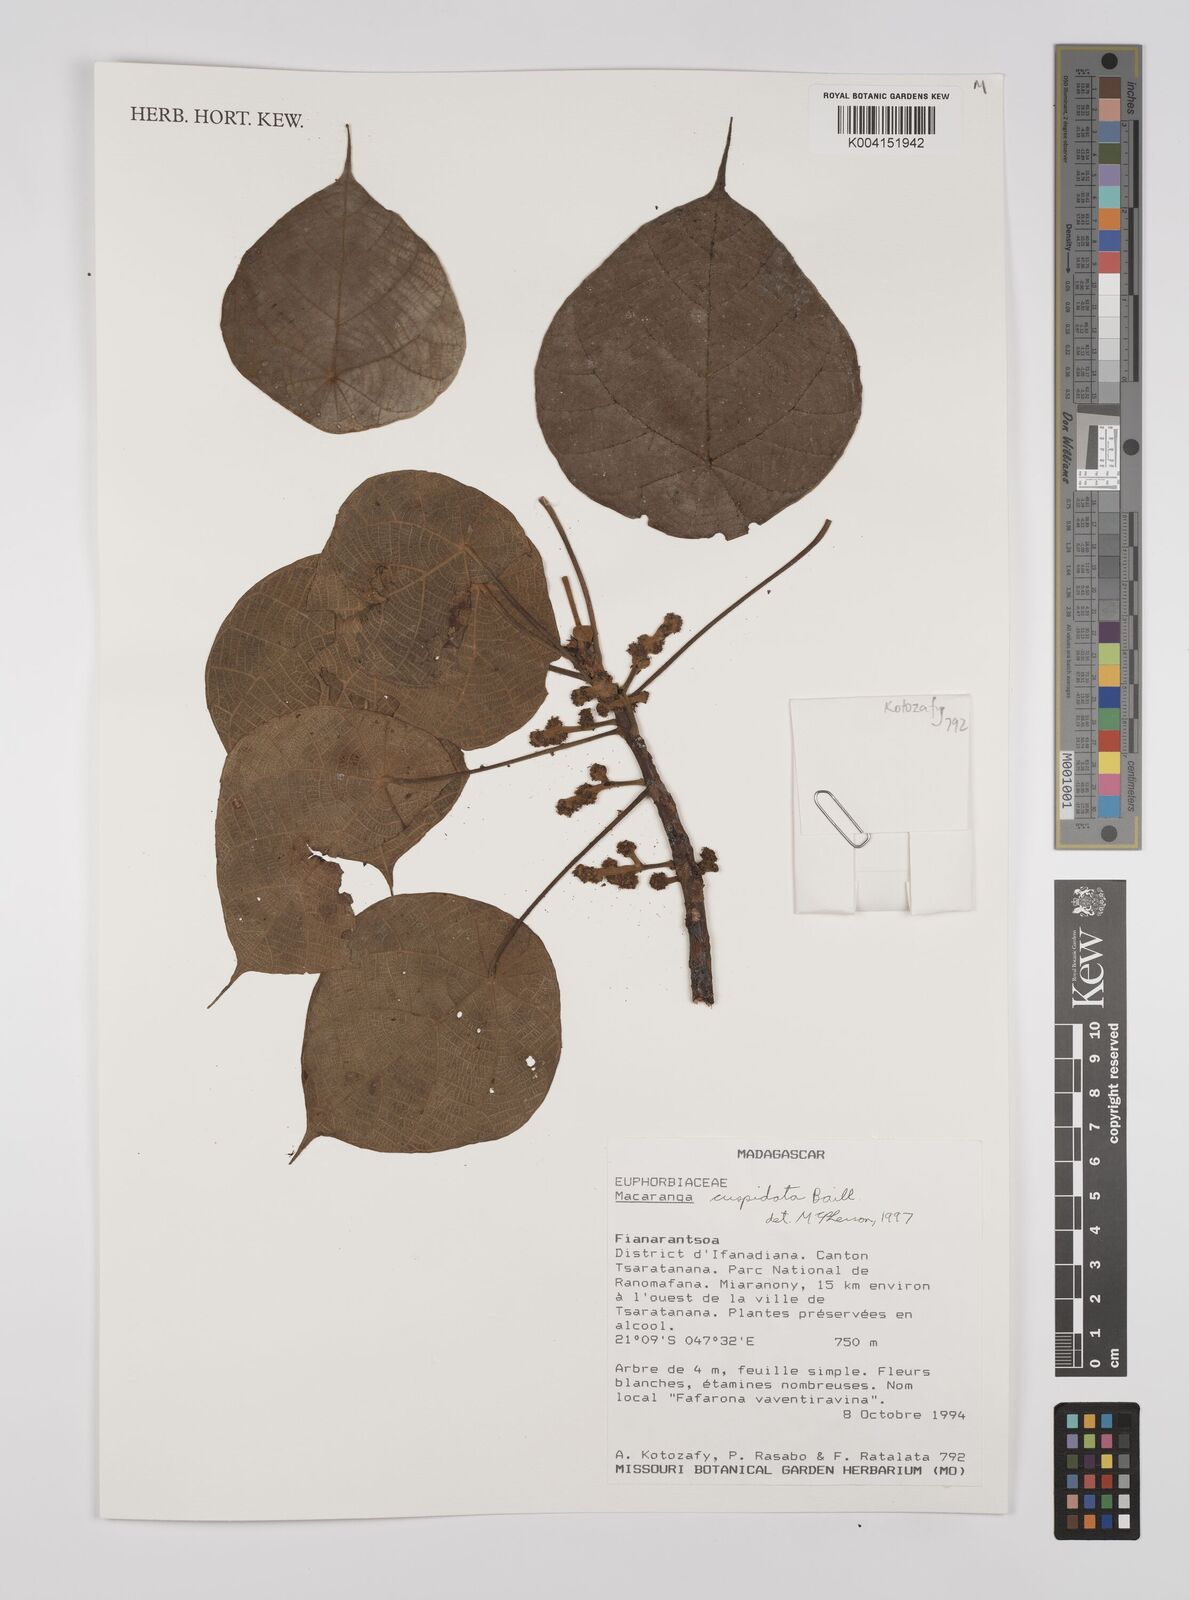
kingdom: Plantae
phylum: Tracheophyta
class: Magnoliopsida
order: Malpighiales
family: Euphorbiaceae
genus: Macaranga
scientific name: Macaranga cuspidata
